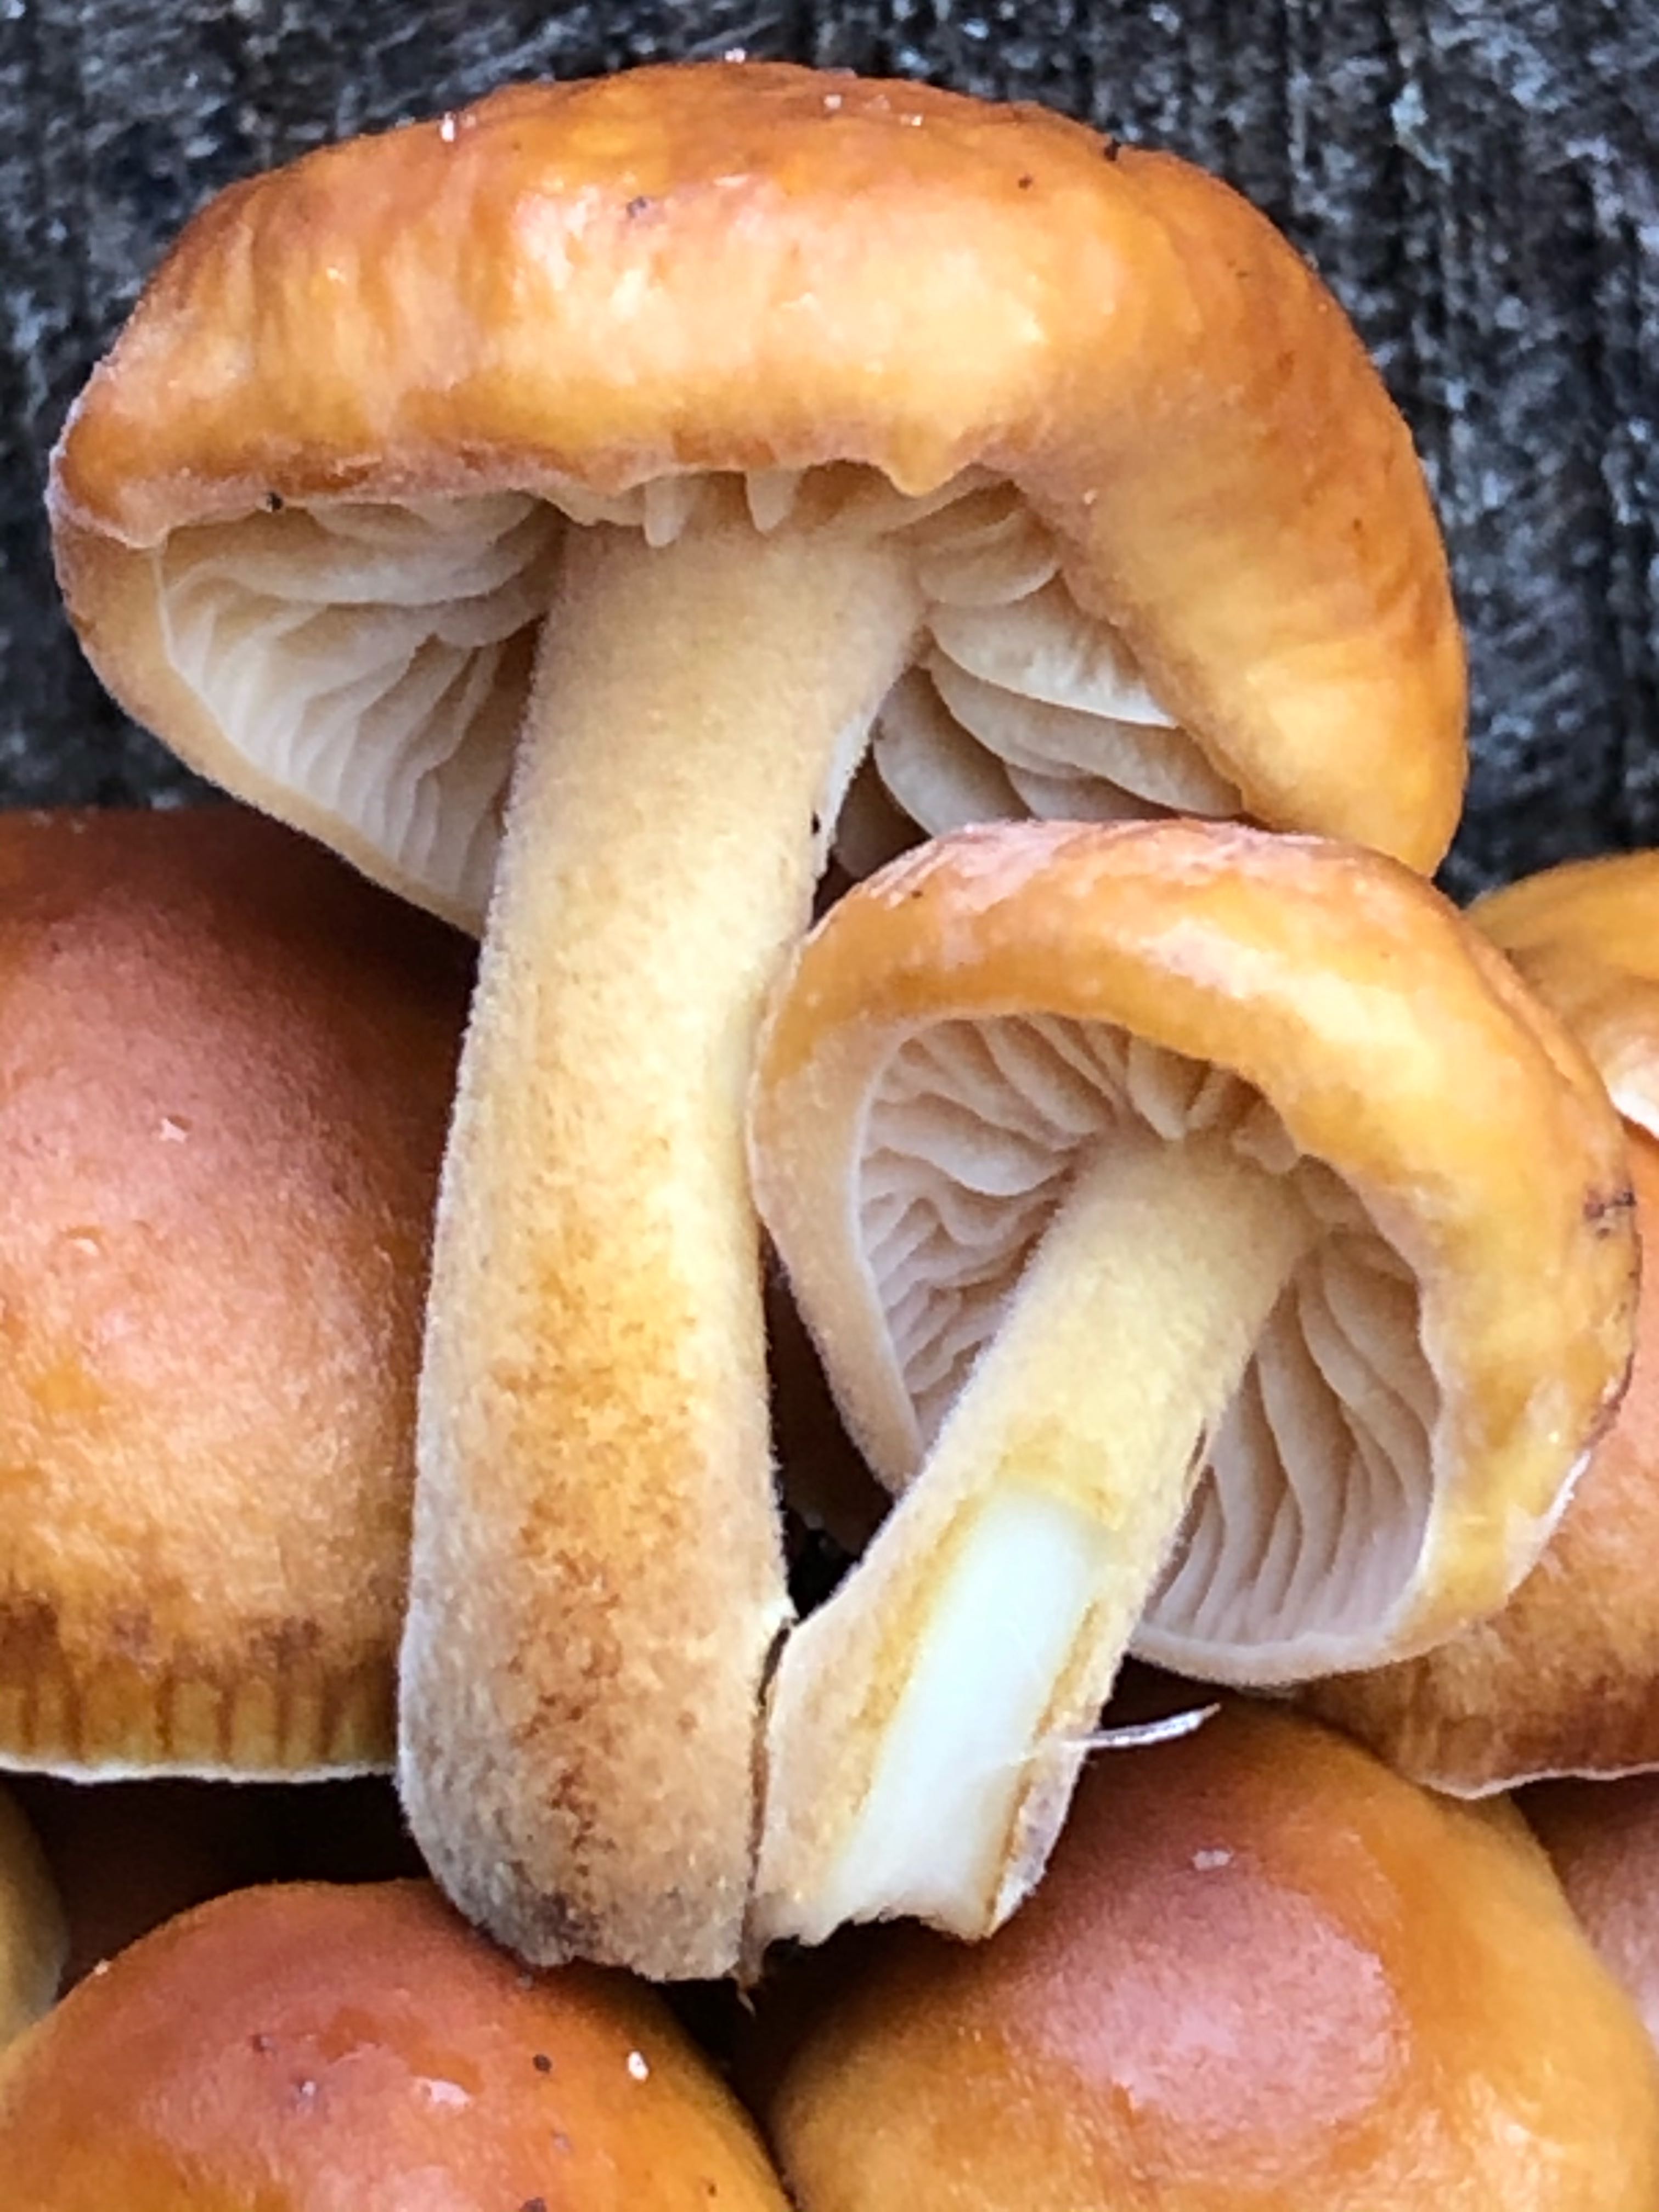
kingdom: Fungi
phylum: Basidiomycota
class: Agaricomycetes
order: Agaricales
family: Strophariaceae
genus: Hypholoma
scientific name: Hypholoma fasciculare
